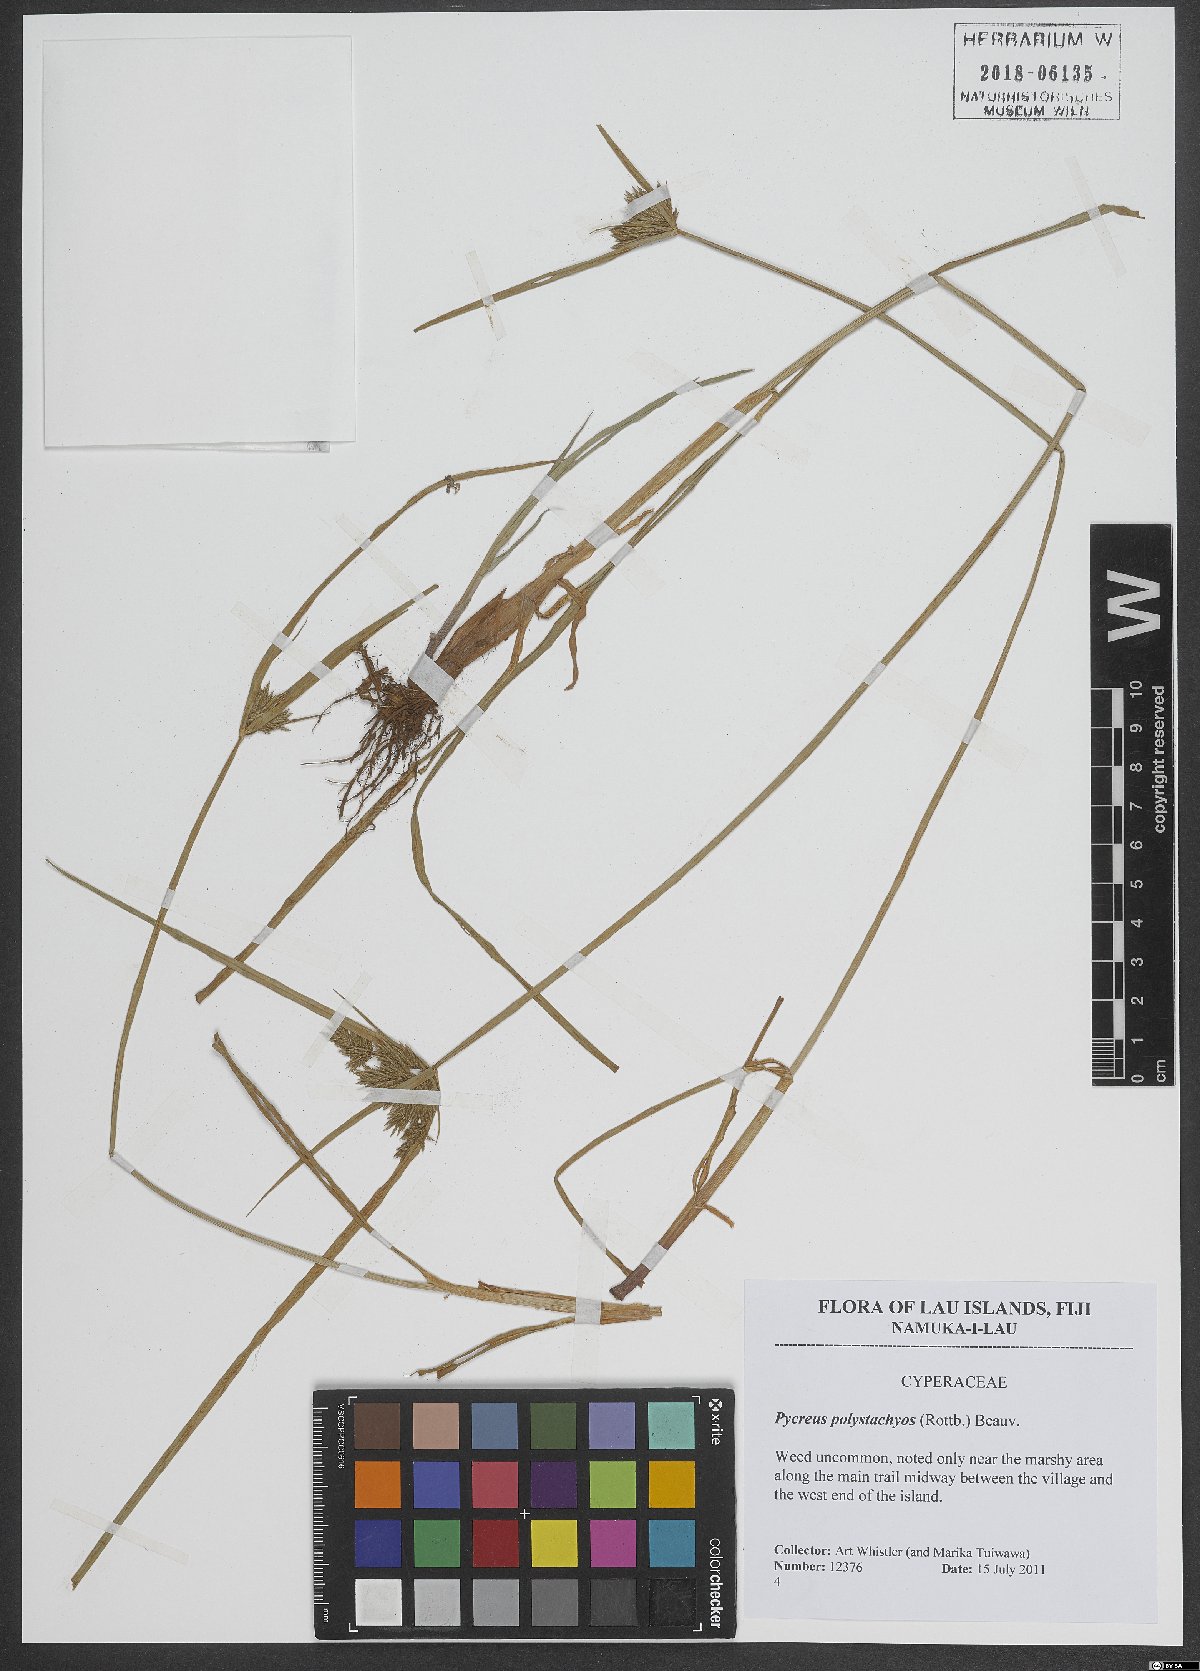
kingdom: Plantae
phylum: Tracheophyta
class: Liliopsida
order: Poales
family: Cyperaceae
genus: Cyperus
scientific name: Cyperus polystachyos
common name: Bunchy flat sedge
